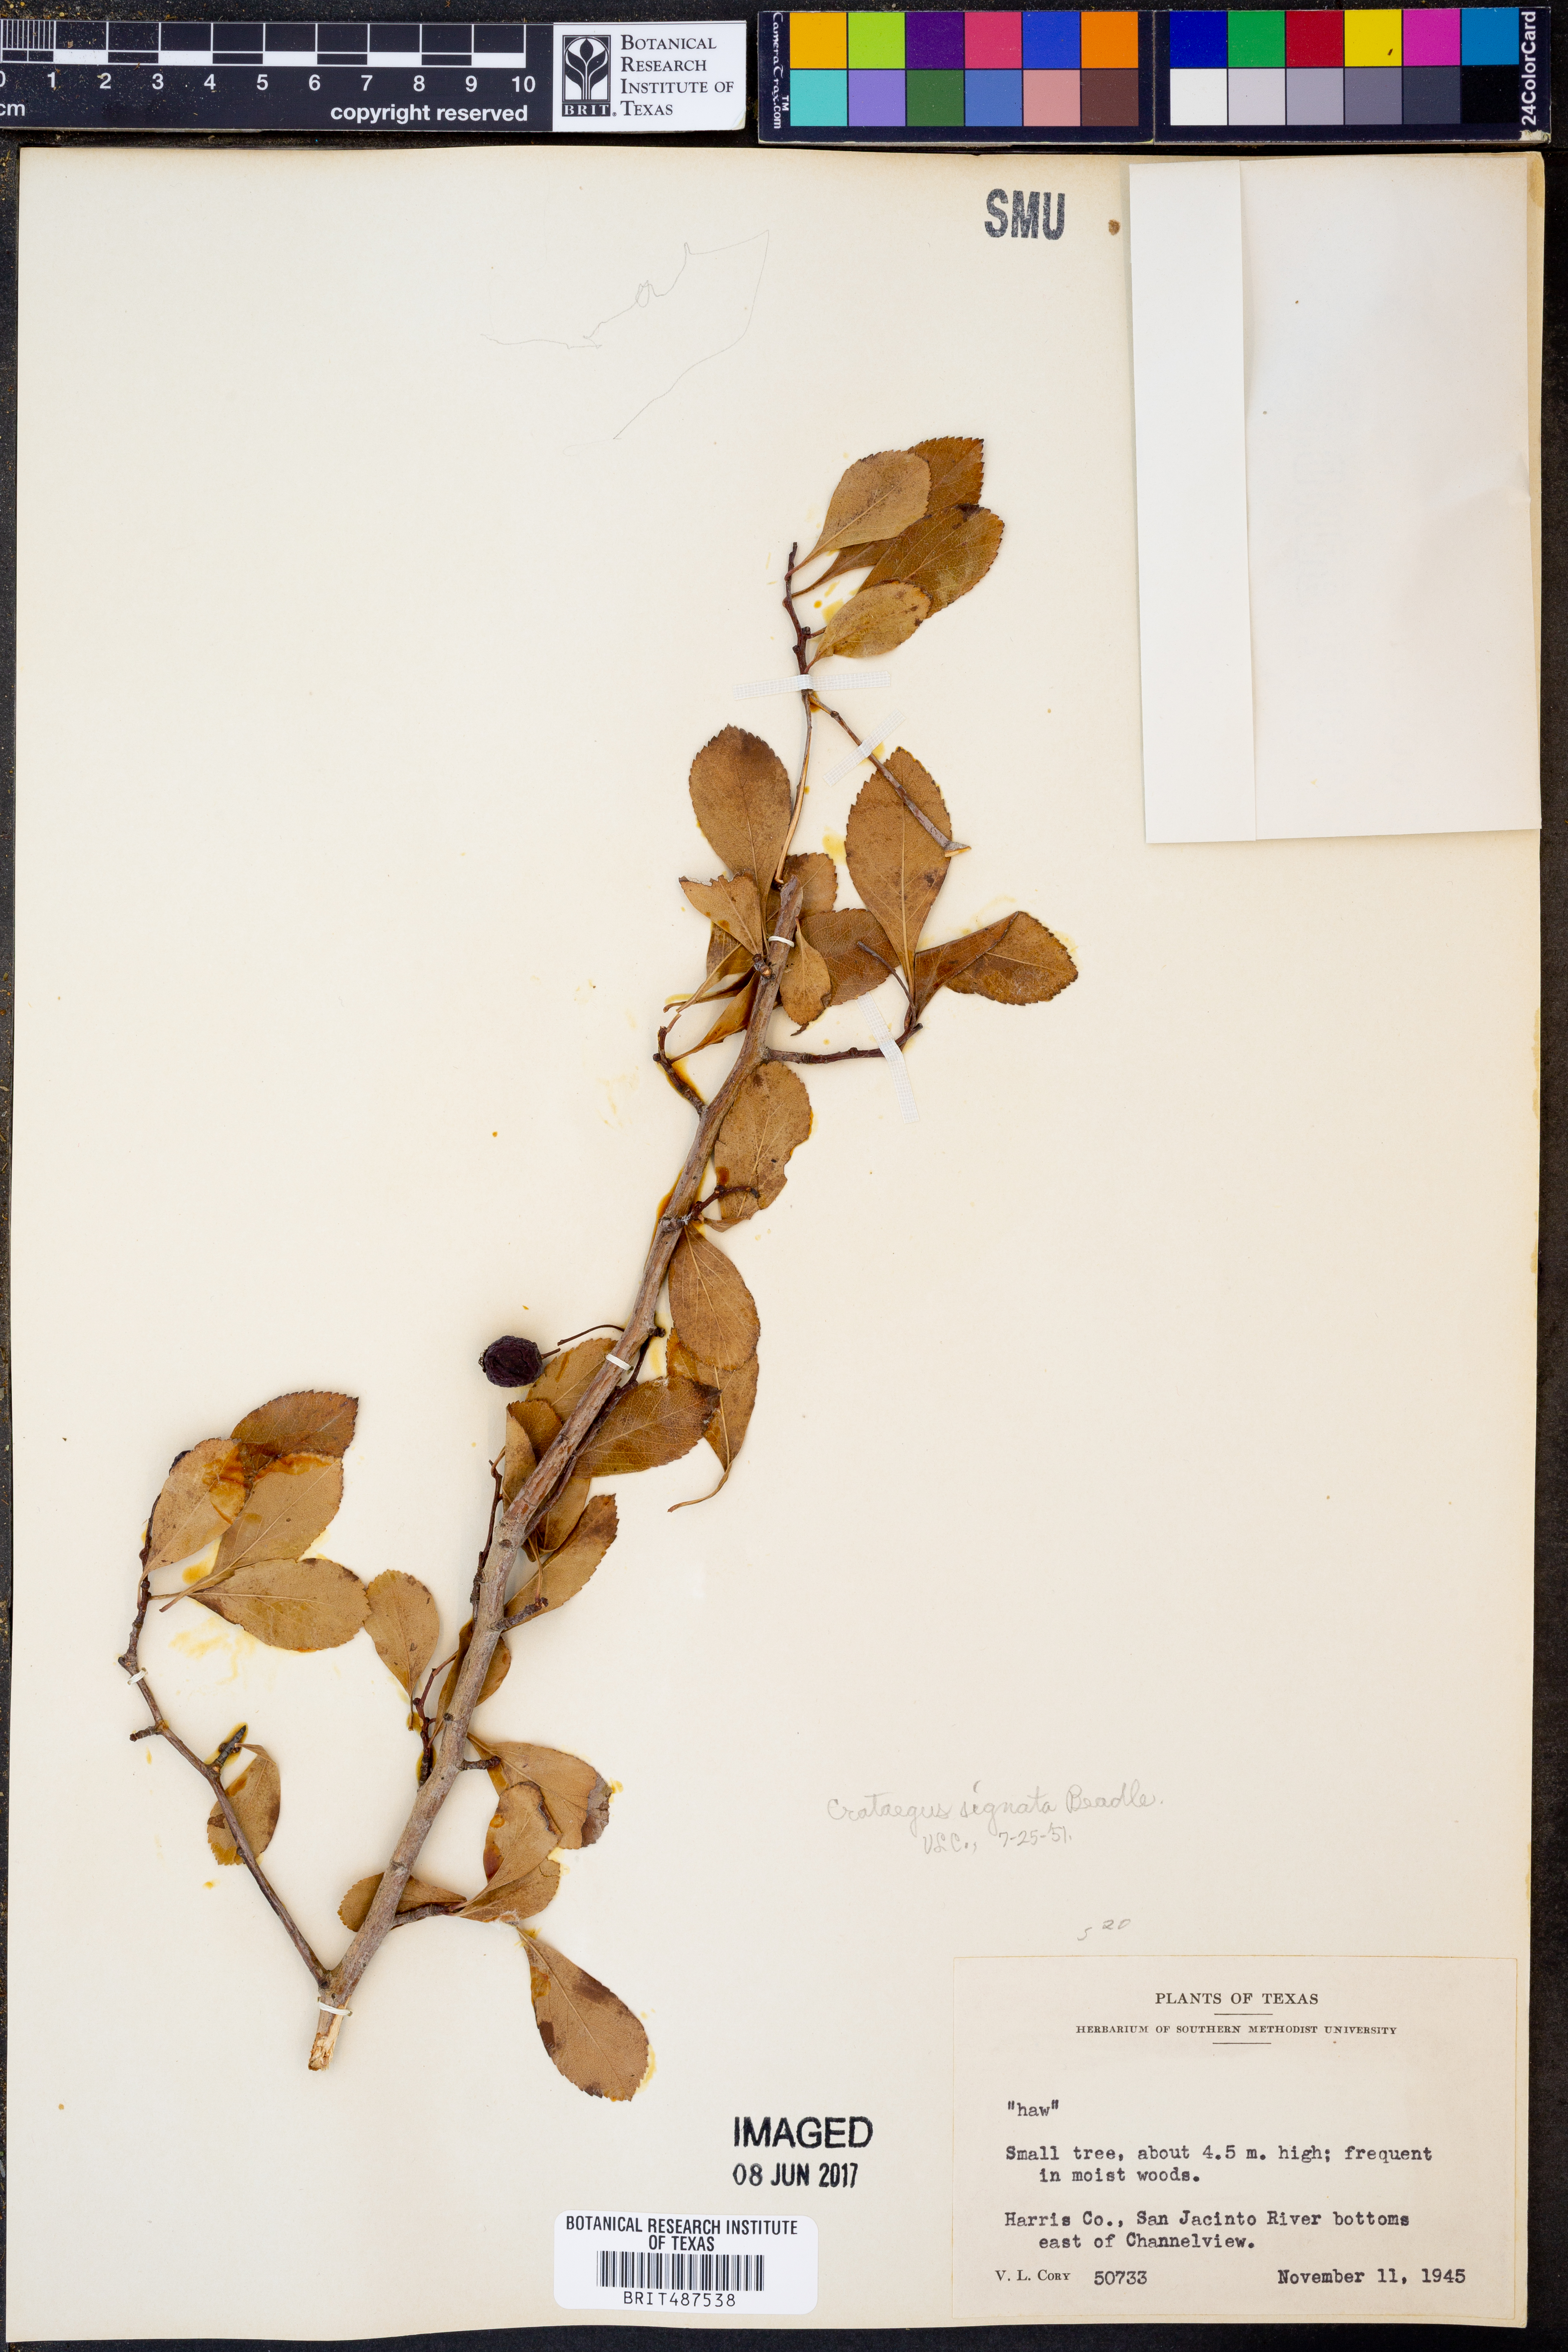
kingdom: Plantae
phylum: Tracheophyta
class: Magnoliopsida
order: Rosales
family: Rosaceae
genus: Crataegus
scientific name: Crataegus crus-galli
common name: Cockspurthorn
